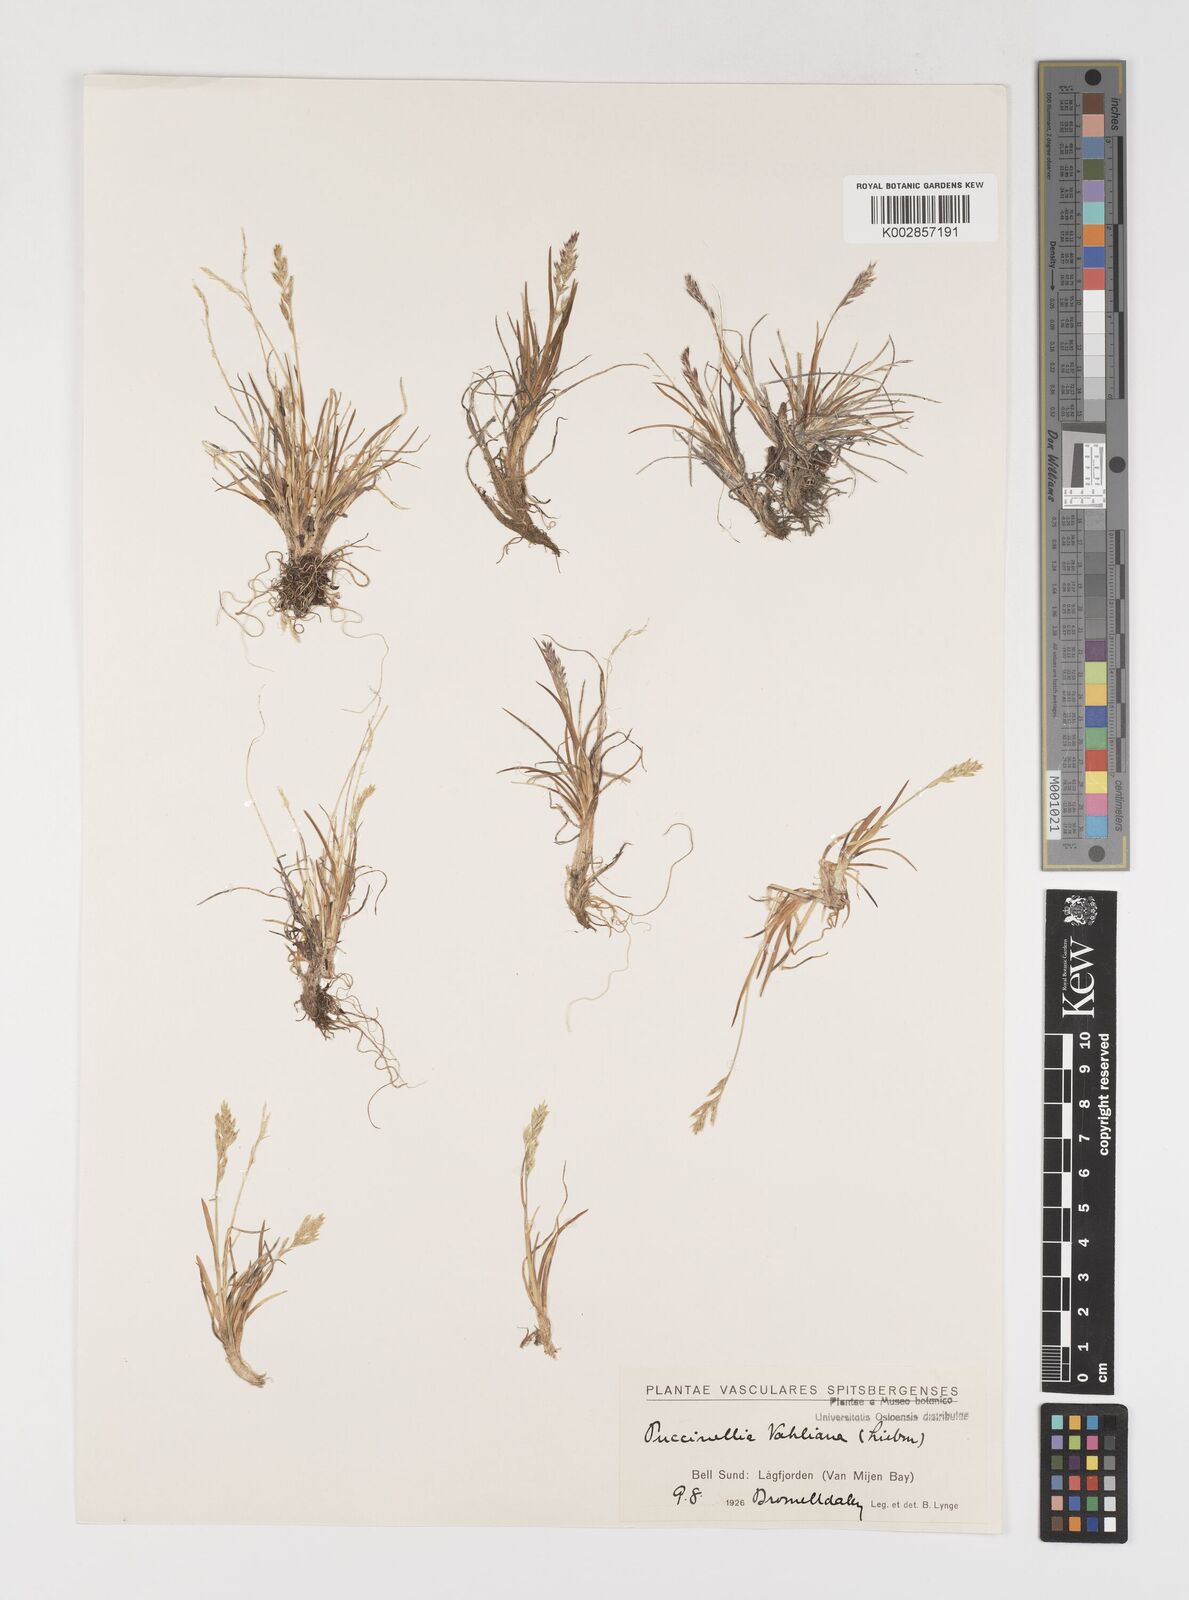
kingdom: Plantae
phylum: Tracheophyta
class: Liliopsida
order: Poales
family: Poaceae
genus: Puccinellia
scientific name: Puccinellia vahliana
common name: Vahl's alkaligrass
